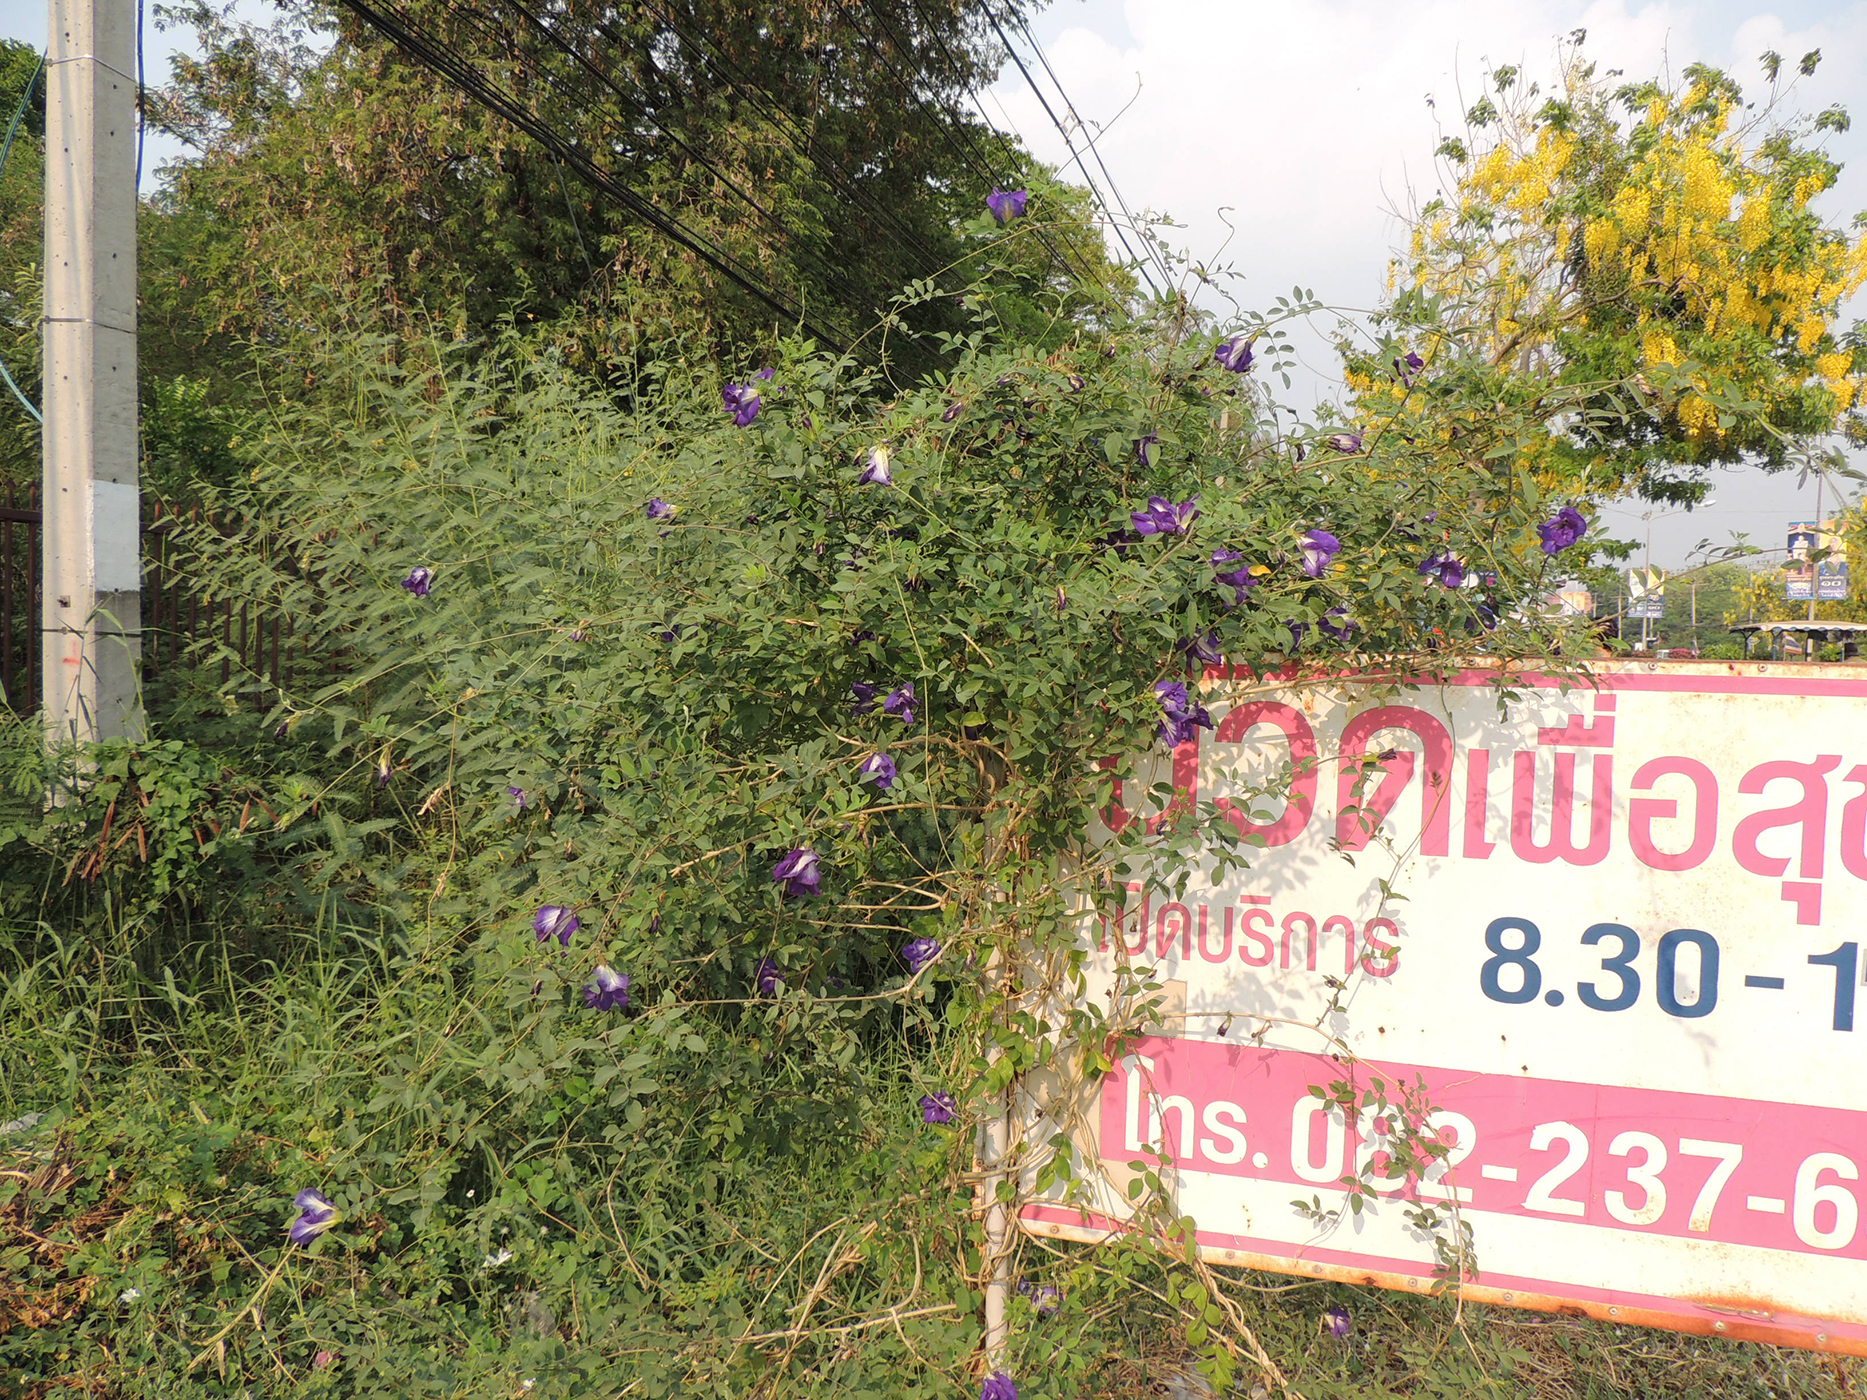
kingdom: Plantae
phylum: Tracheophyta
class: Magnoliopsida
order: Fabales
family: Fabaceae
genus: Clitoria
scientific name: Clitoria ternatea
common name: Asian pigeonwings
